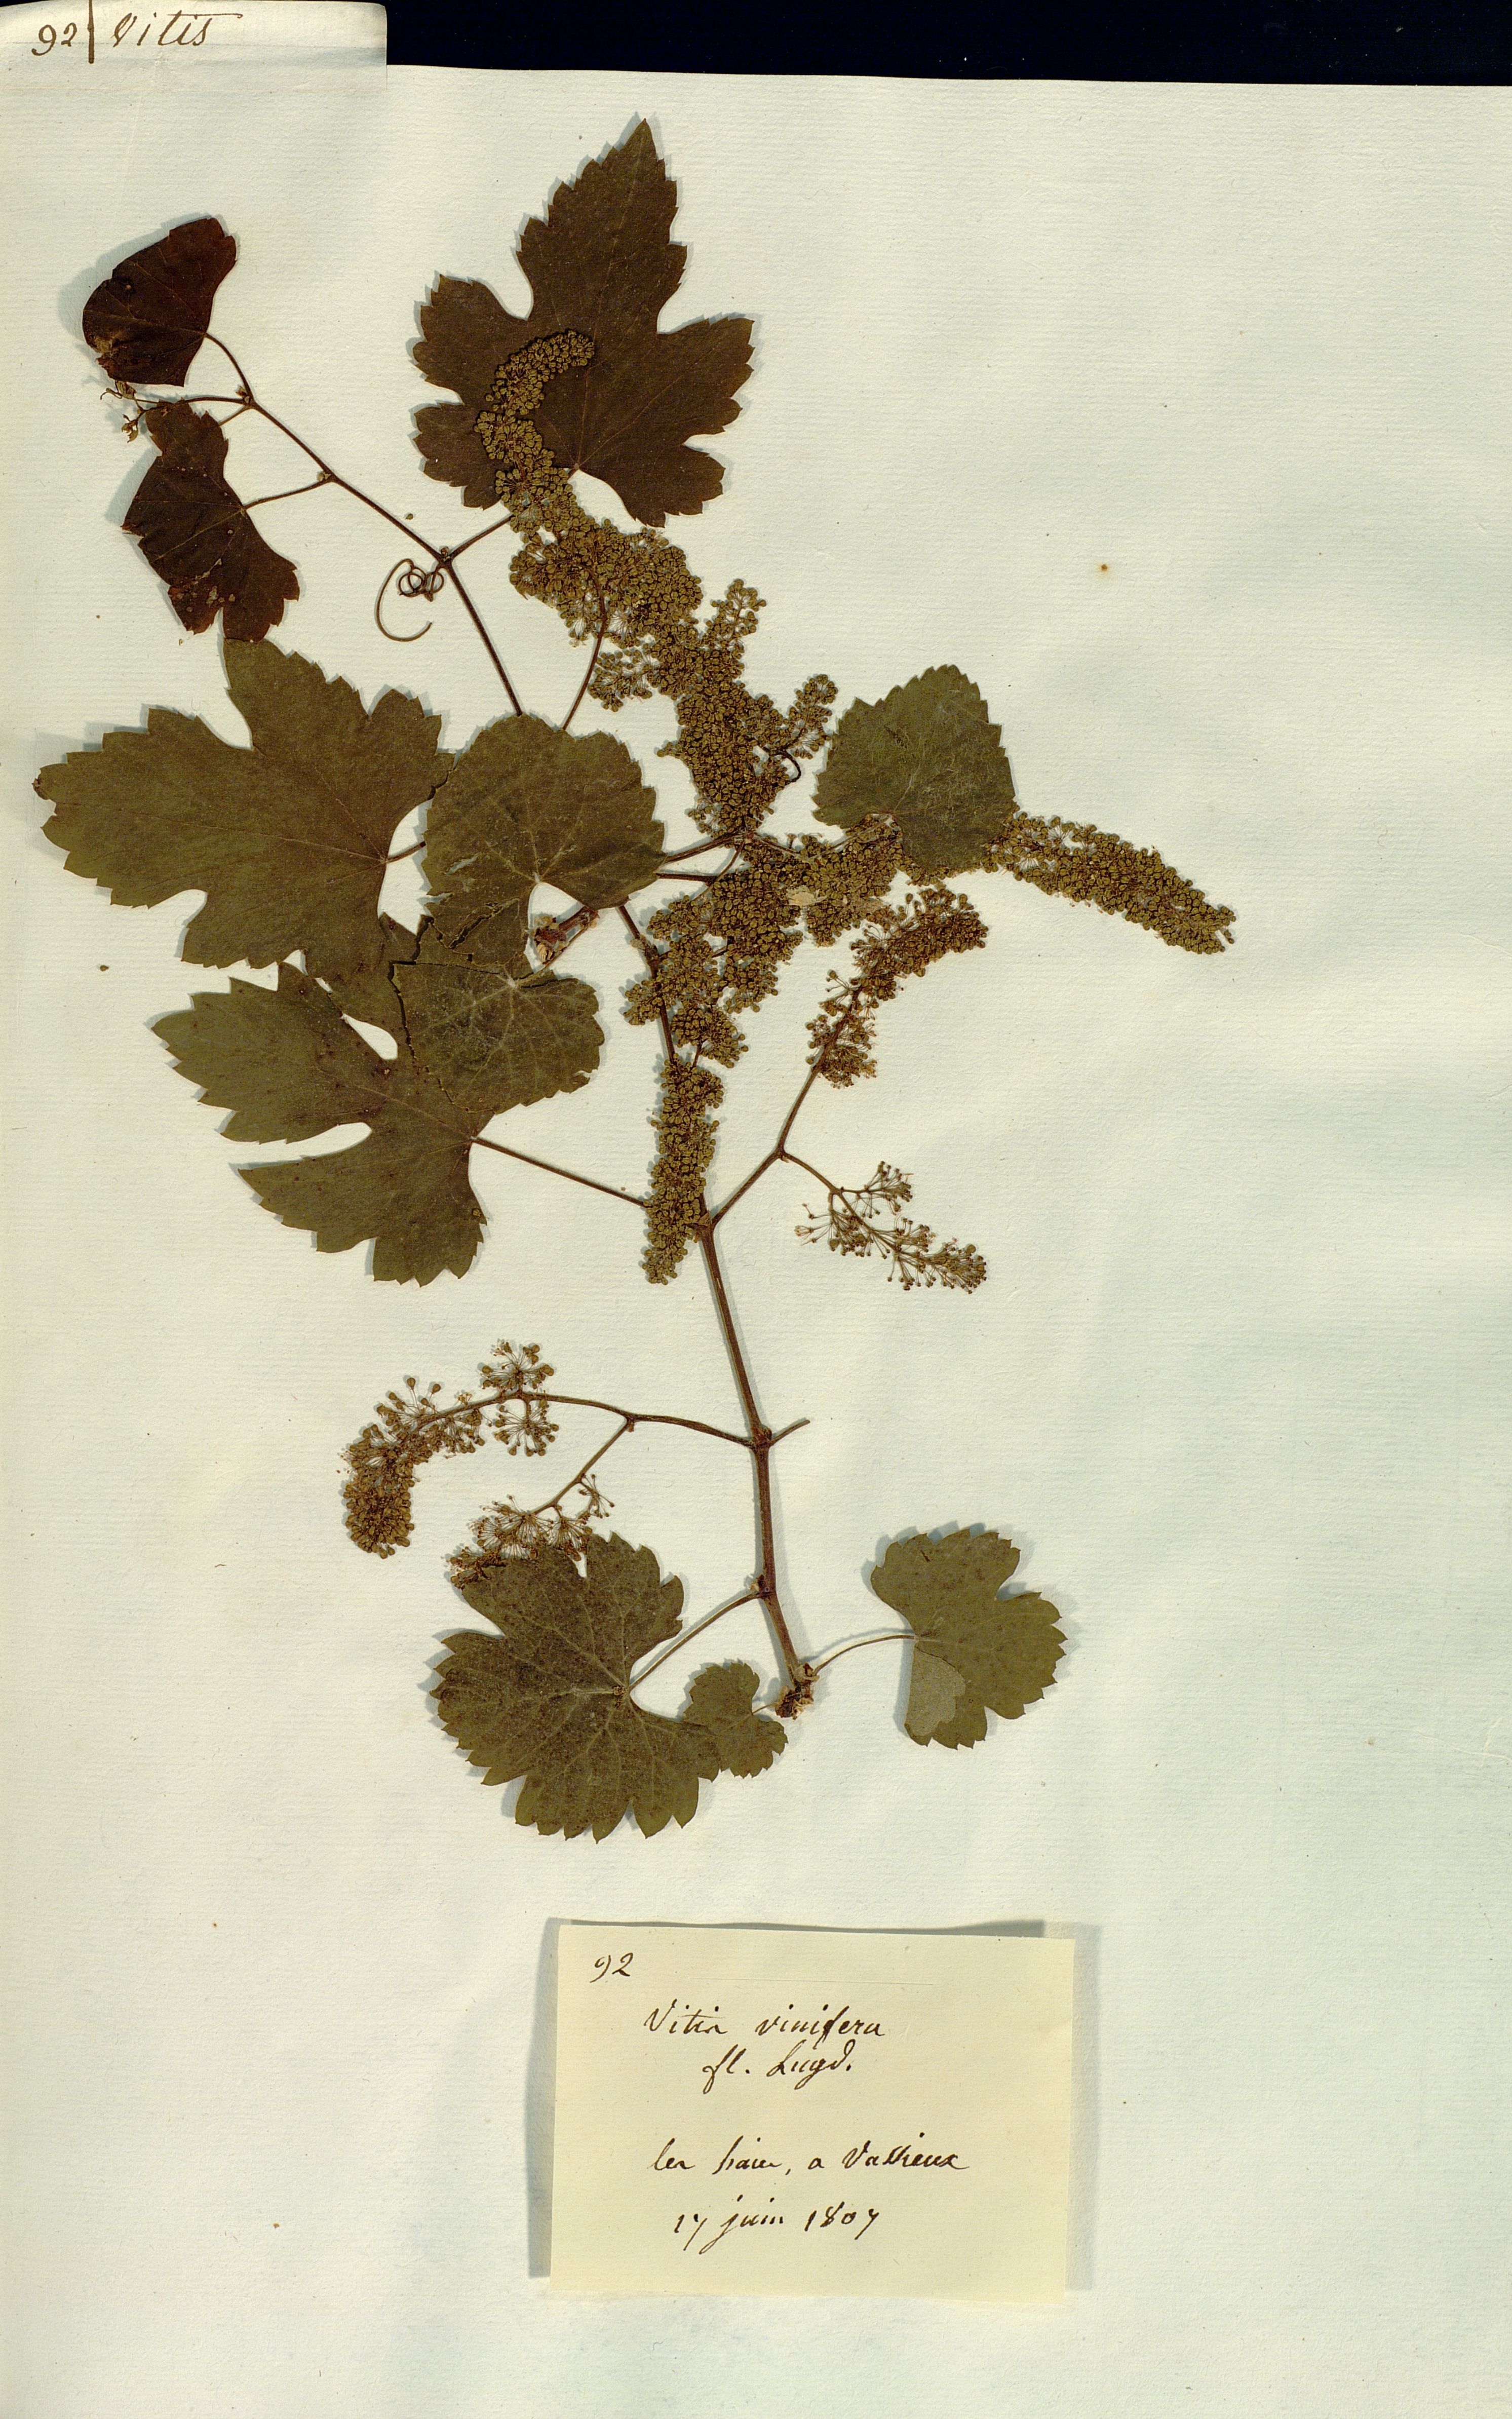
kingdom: Plantae
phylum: Tracheophyta
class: Magnoliopsida
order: Vitales
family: Vitaceae
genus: Vitis
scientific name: Vitis vinifera
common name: Grape-vine
